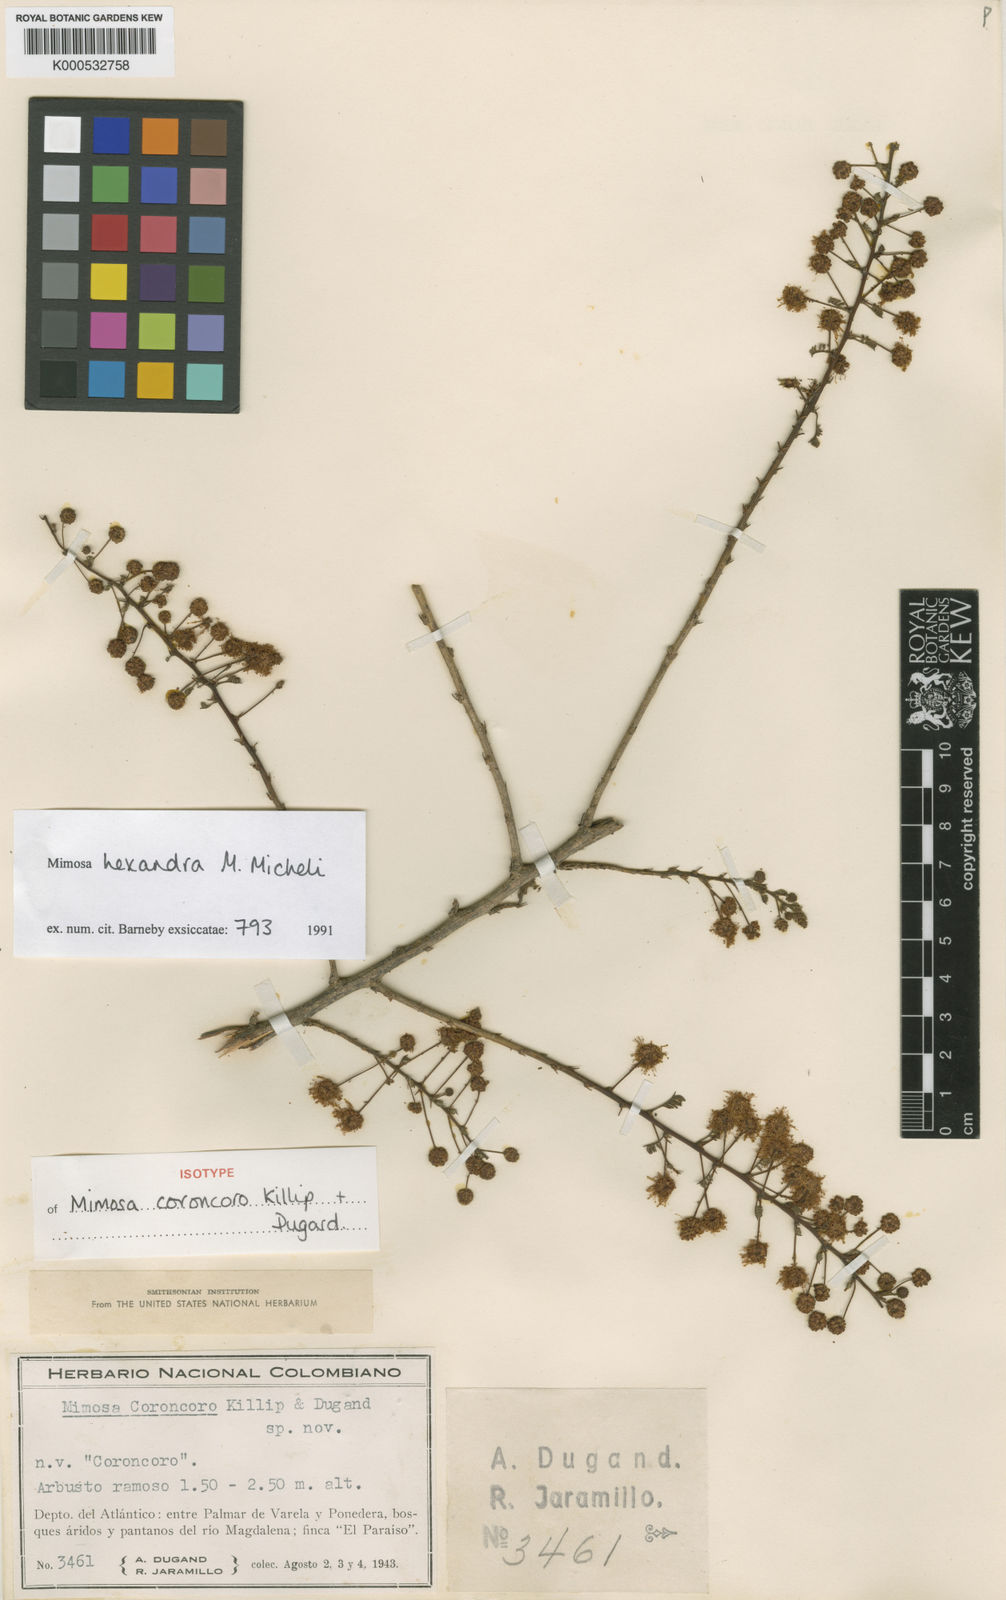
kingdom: Plantae
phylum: Tracheophyta
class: Magnoliopsida
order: Fabales
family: Fabaceae
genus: Mimosa
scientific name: Mimosa hexandra
